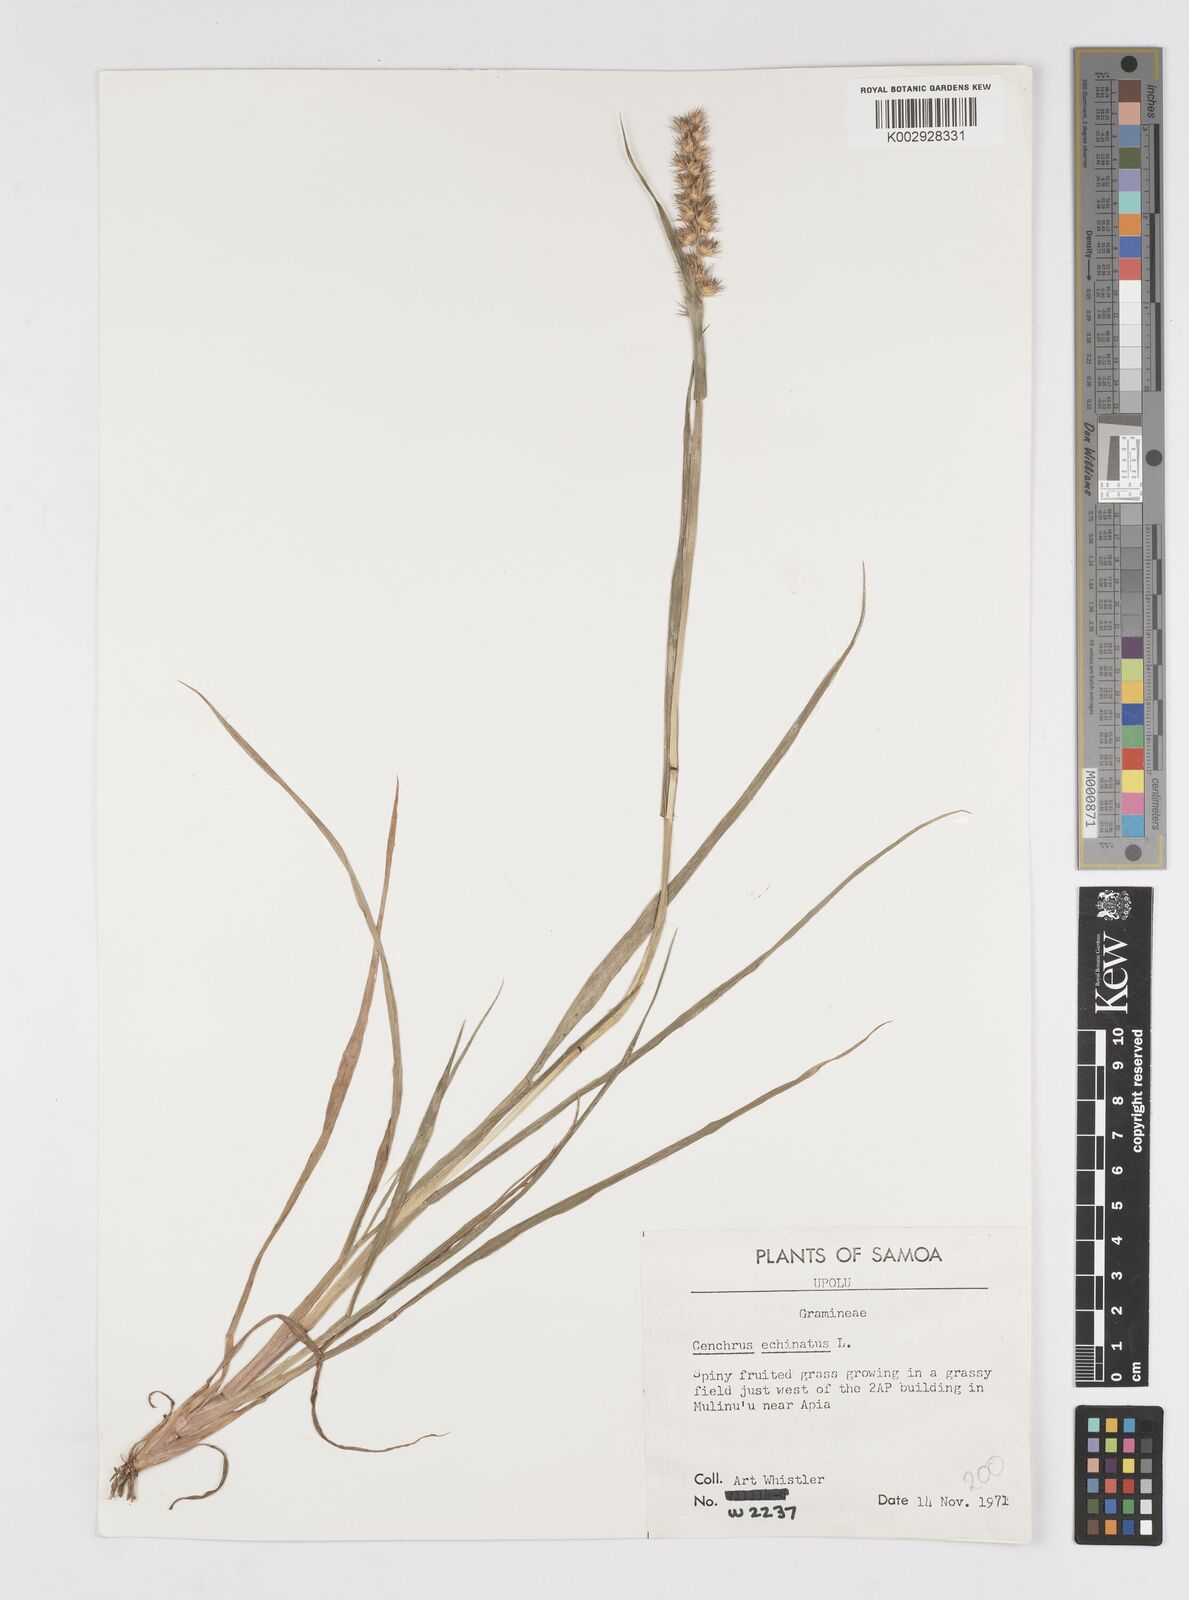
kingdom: Plantae
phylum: Tracheophyta
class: Liliopsida
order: Poales
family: Poaceae
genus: Cenchrus
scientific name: Cenchrus echinatus
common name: Southern sandbur
